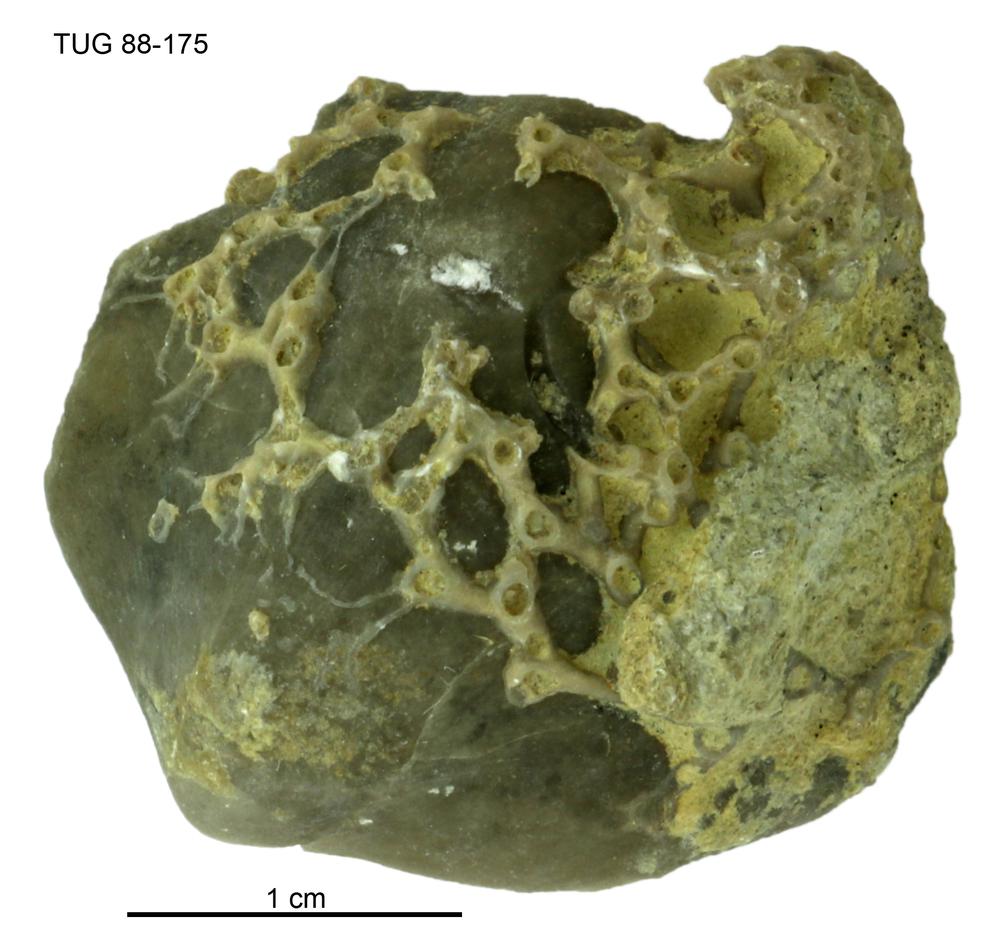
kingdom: Animalia
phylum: Brachiopoda
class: Rhynchonellata
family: Lissatrypidae
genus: Atrypoidea
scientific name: Atrypoidea
